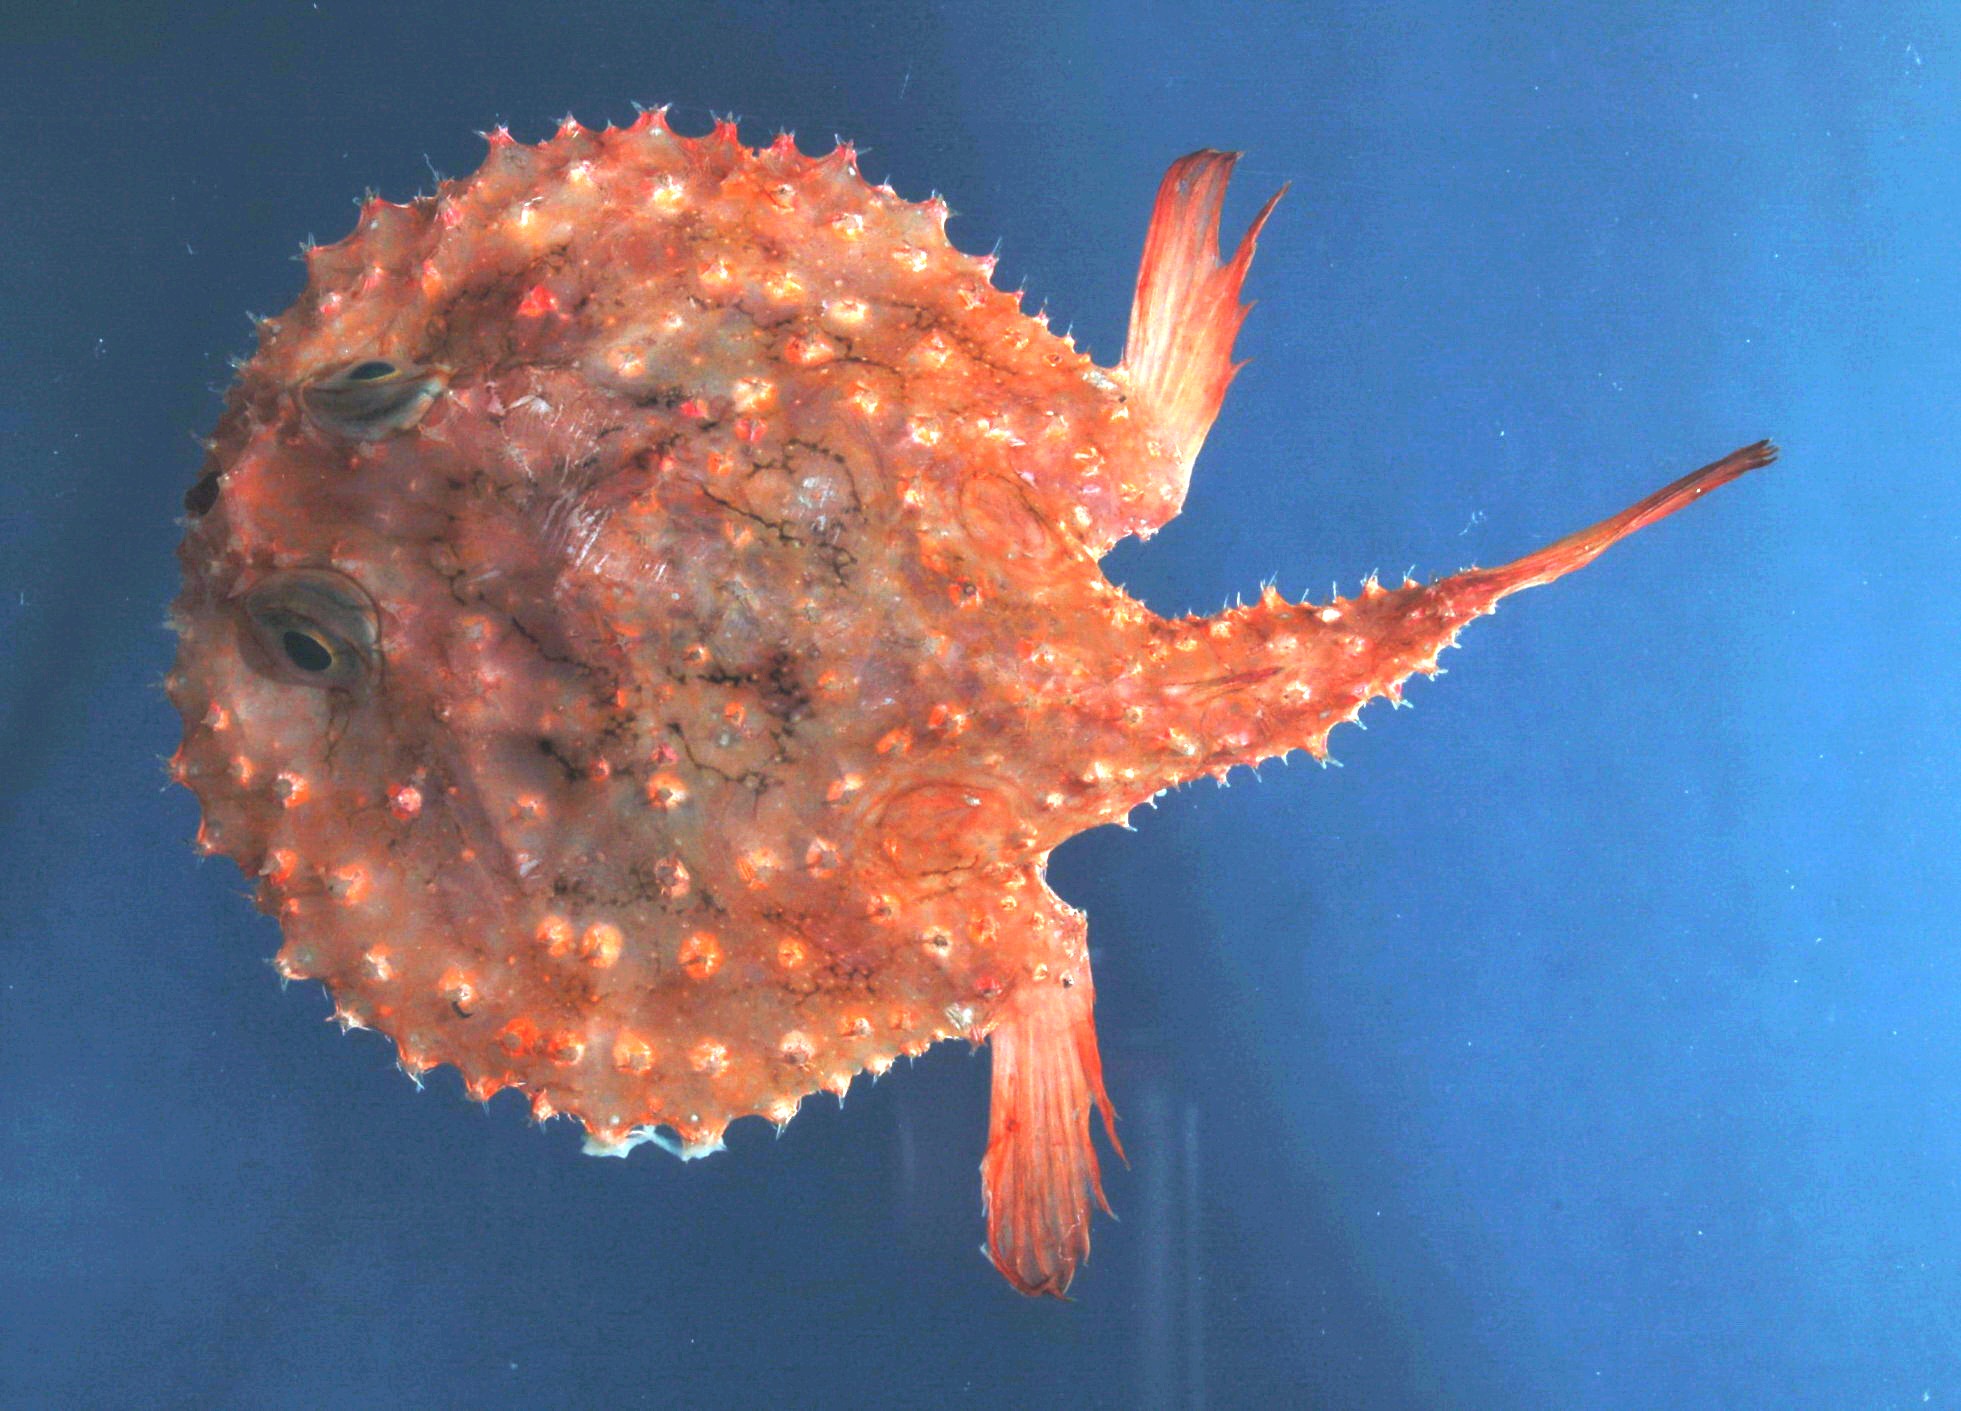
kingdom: Animalia
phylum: Chordata
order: Lophiiformes
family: Ogcocephalidae
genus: Halieutaea
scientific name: Halieutaea fitzsimonsi
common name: Circular seabat
